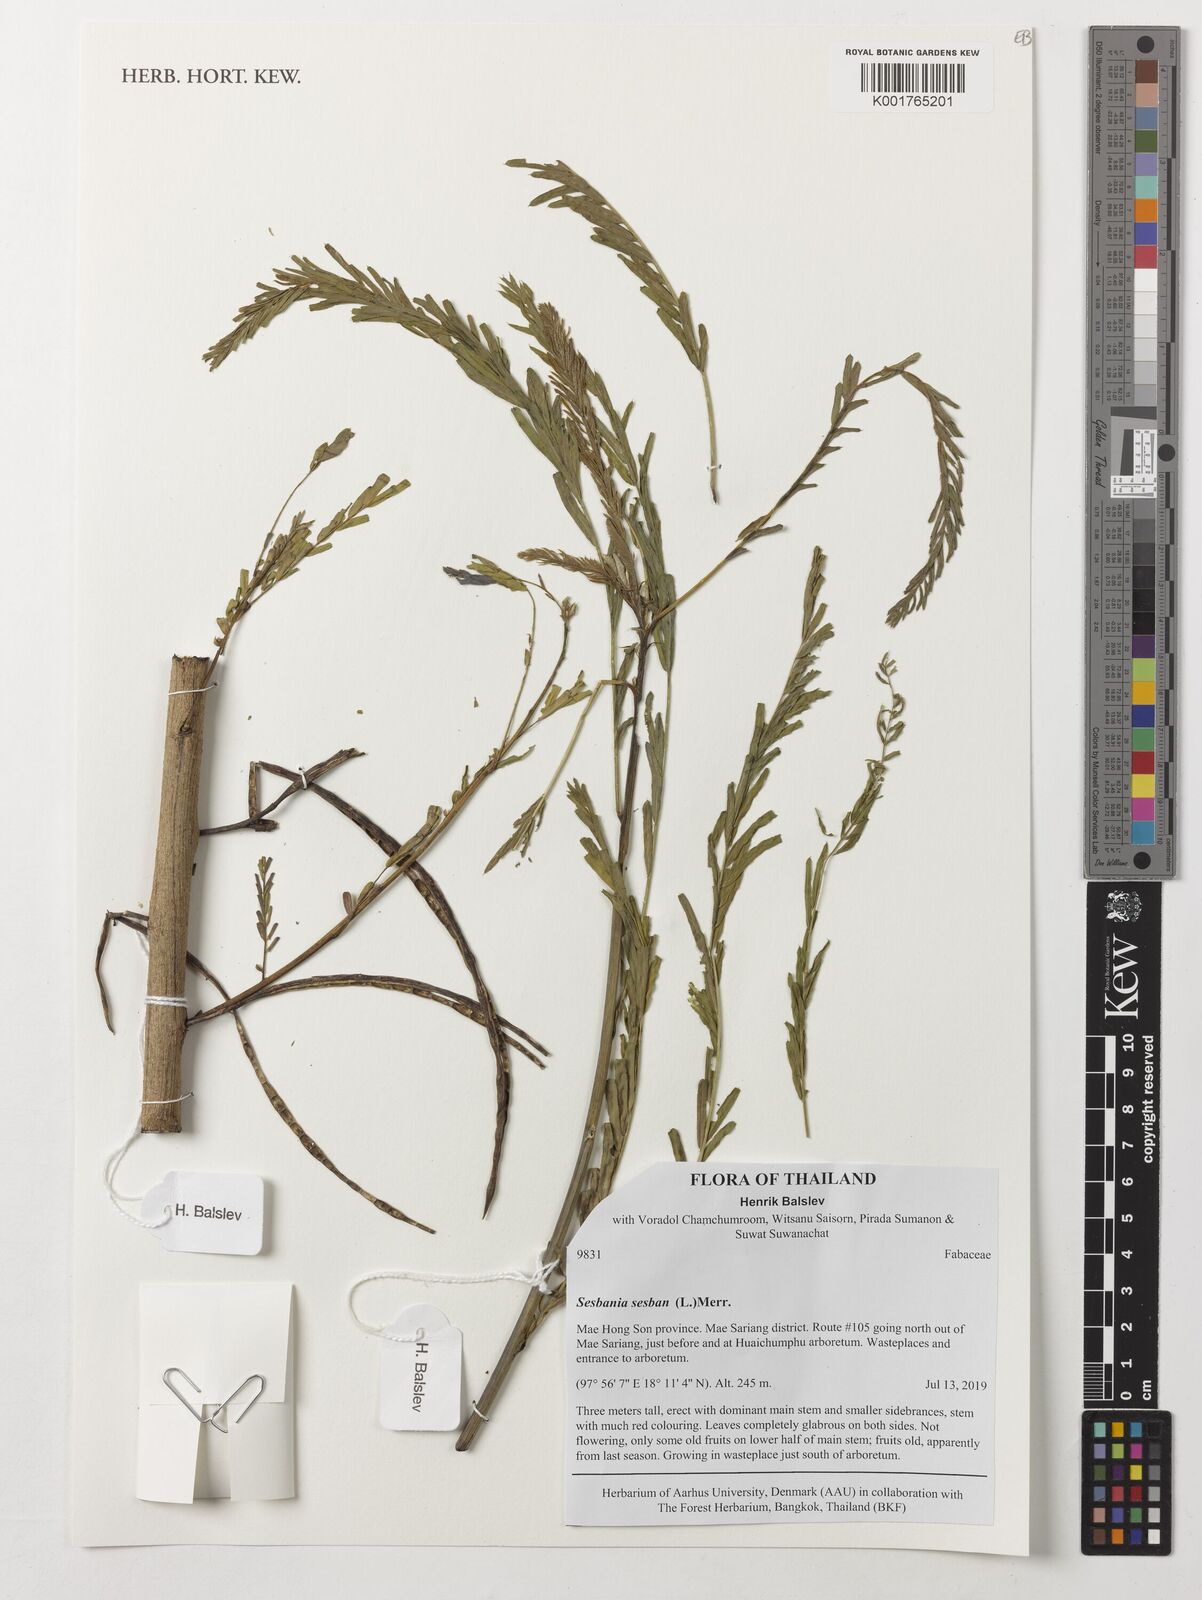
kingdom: Plantae
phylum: Tracheophyta
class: Magnoliopsida
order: Fabales
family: Fabaceae
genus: Sesbania
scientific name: Sesbania sesban
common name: Egyptian sesban
